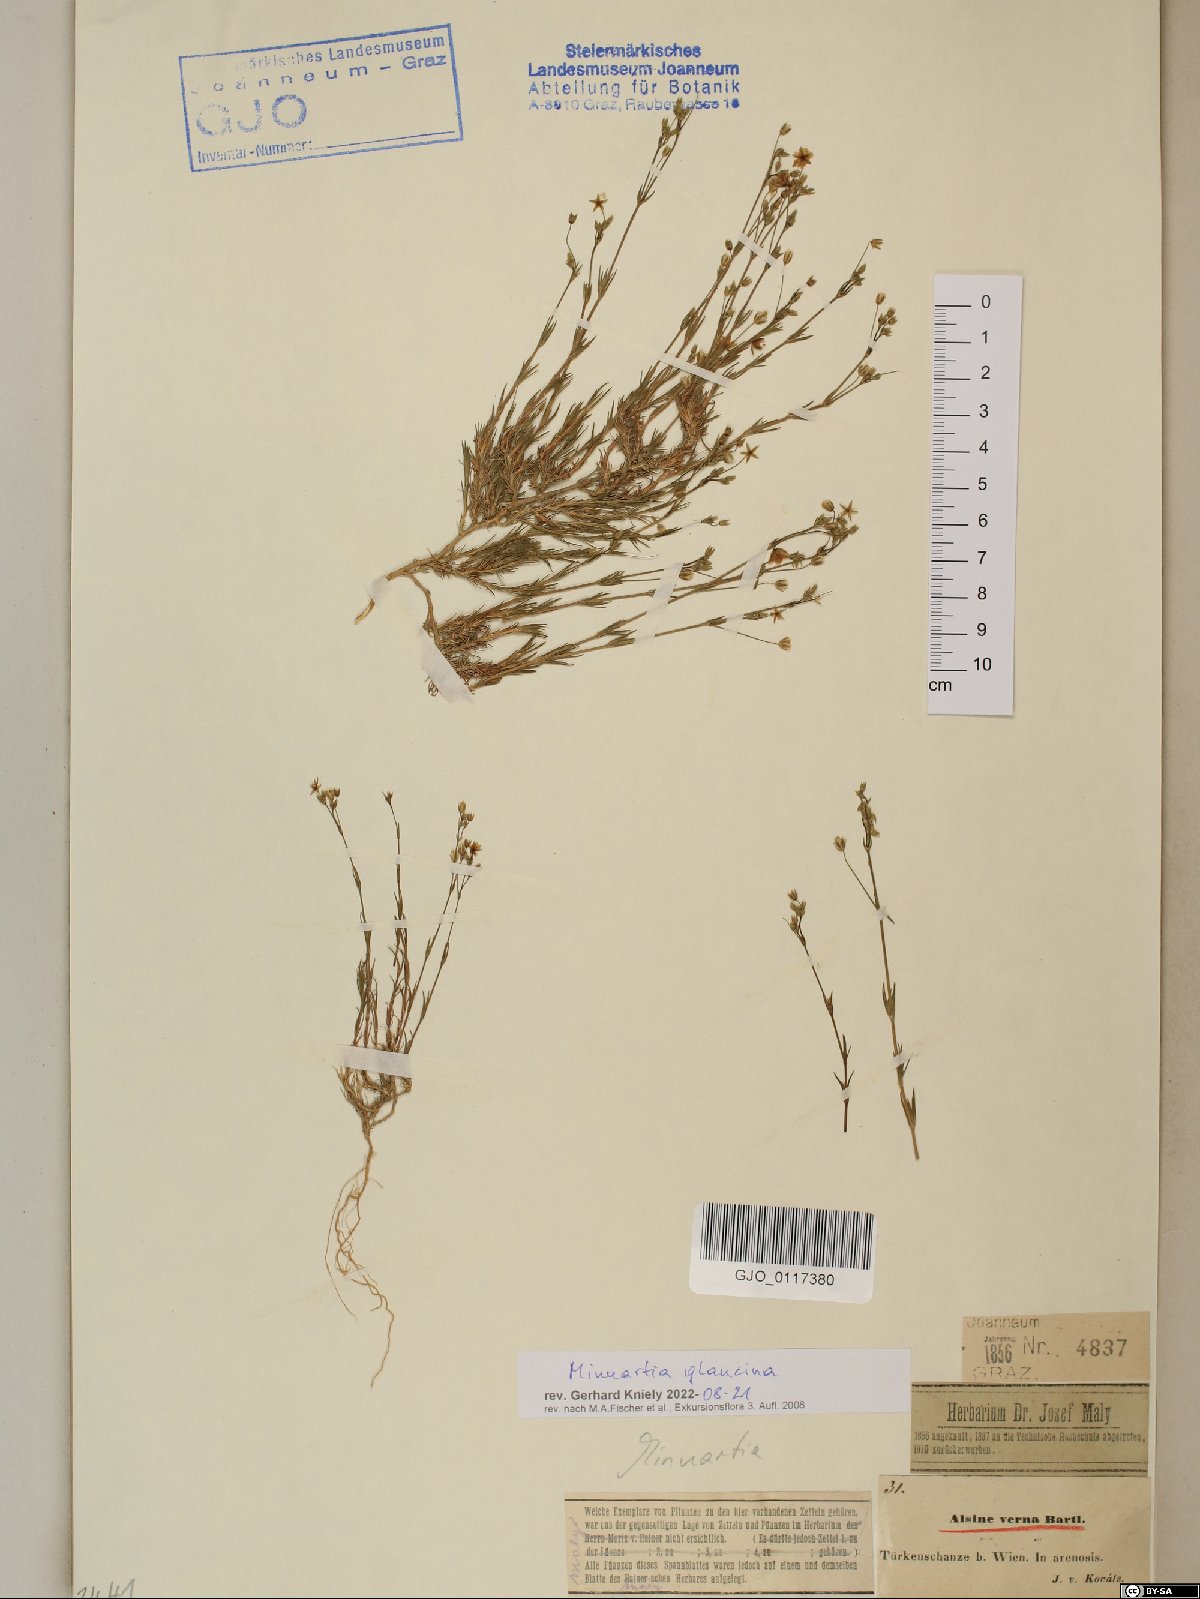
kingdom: Plantae
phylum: Tracheophyta
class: Magnoliopsida
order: Caryophyllales
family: Caryophyllaceae
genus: Sabulina
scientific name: Sabulina glaucina
